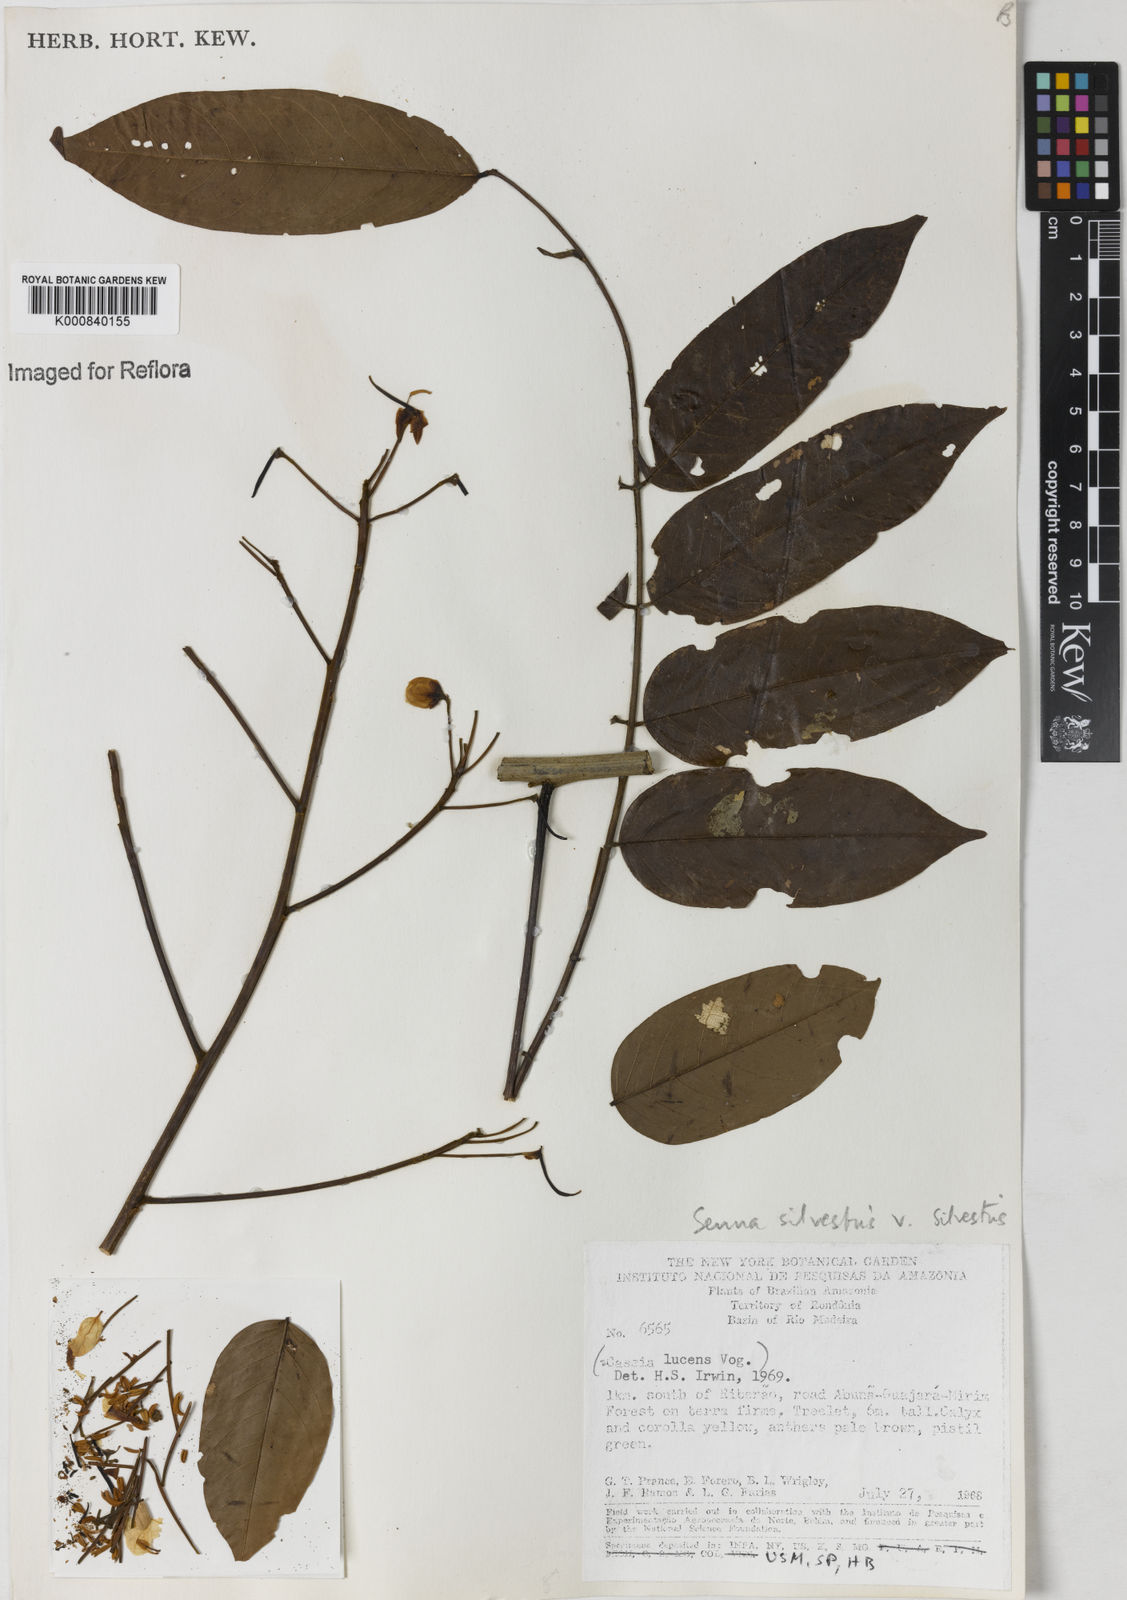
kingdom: Plantae
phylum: Tracheophyta
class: Magnoliopsida
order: Fabales
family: Fabaceae
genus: Senna
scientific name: Senna silvestris
